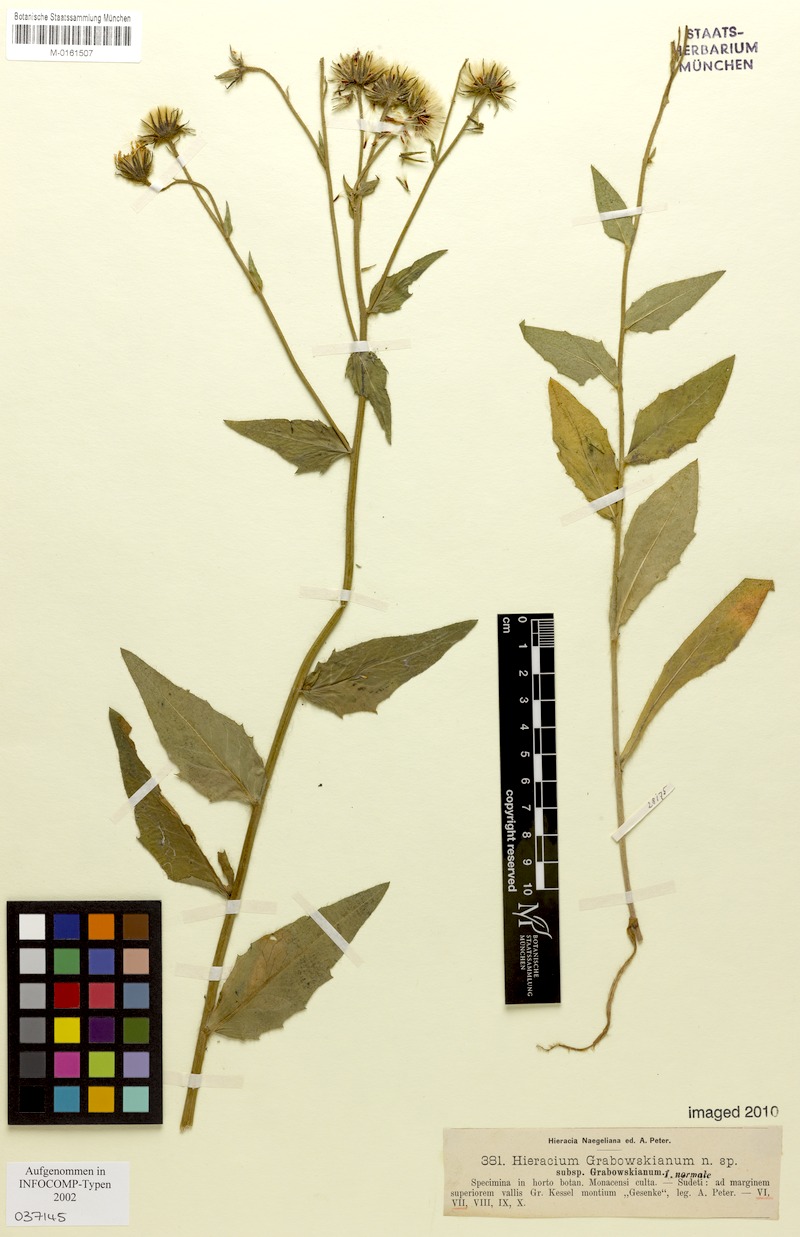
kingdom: Plantae
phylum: Tracheophyta
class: Magnoliopsida
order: Asterales
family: Asteraceae
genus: Hieracium
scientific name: Hieracium valdepilosum
